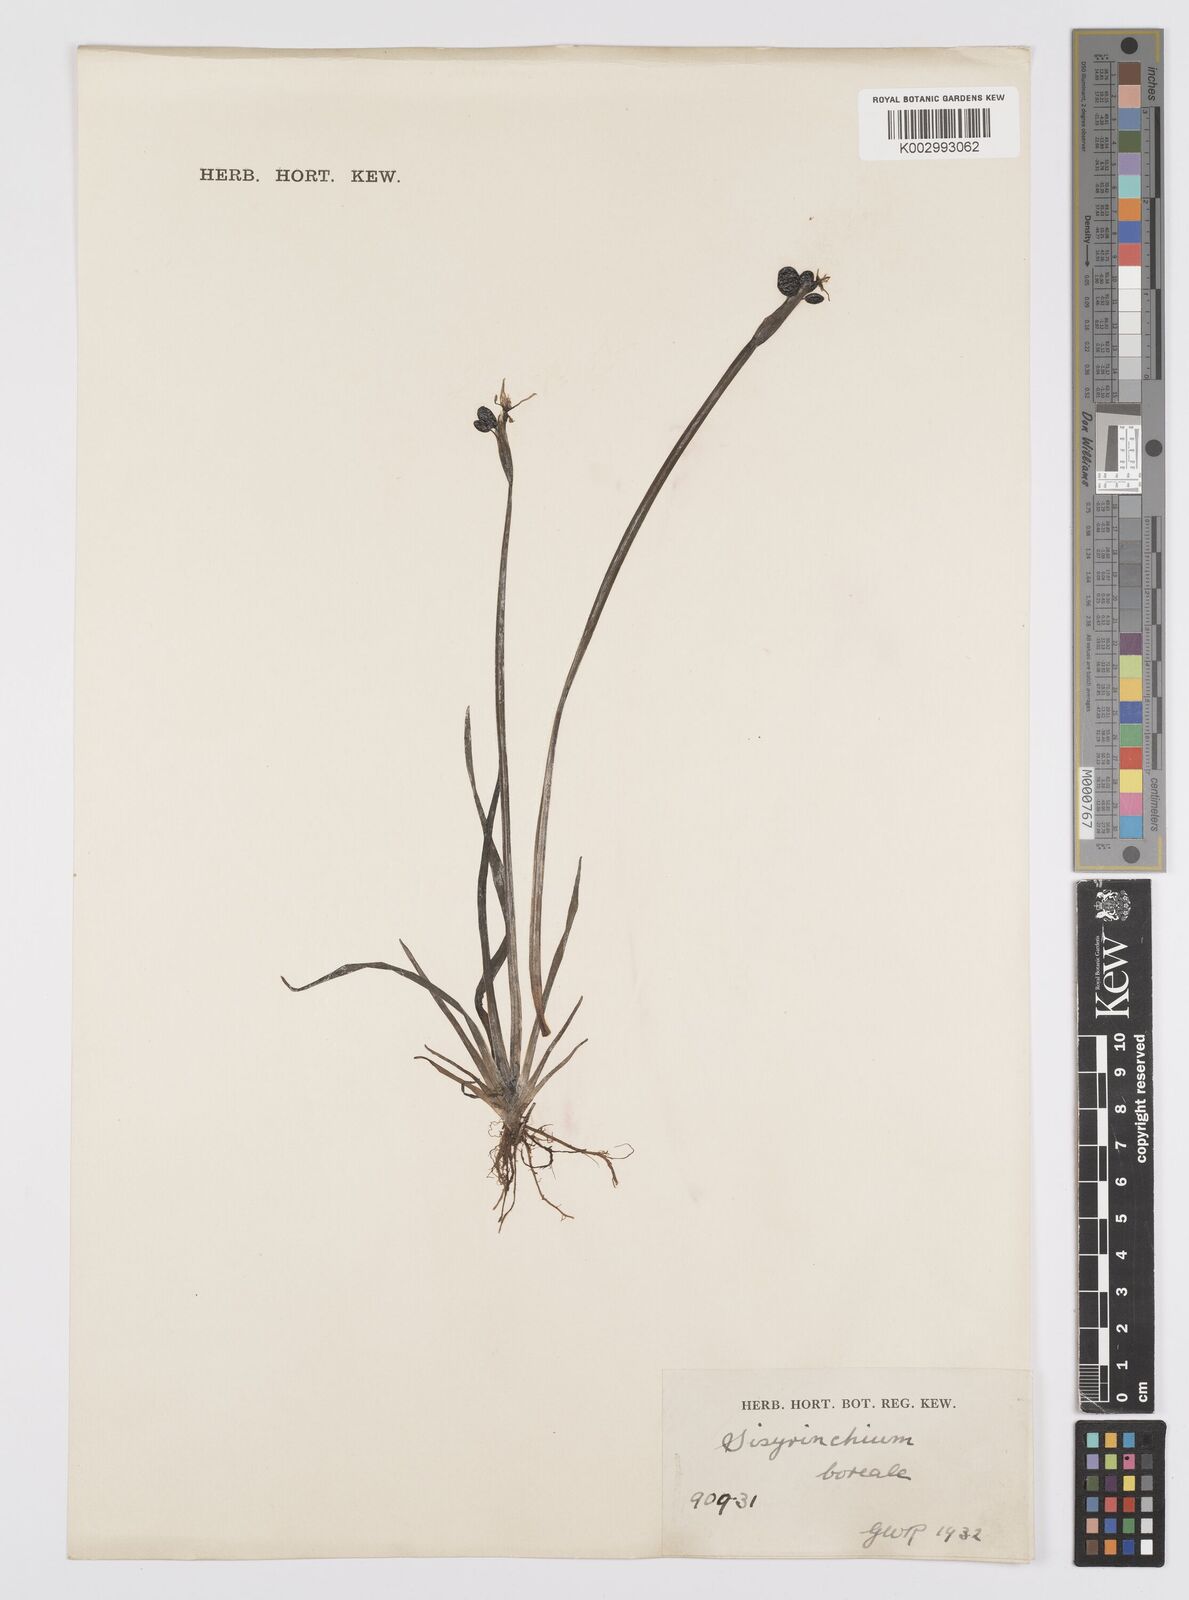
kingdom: Plantae
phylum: Tracheophyta
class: Liliopsida
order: Asparagales
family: Iridaceae
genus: Sisyrinchium
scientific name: Sisyrinchium californicum
